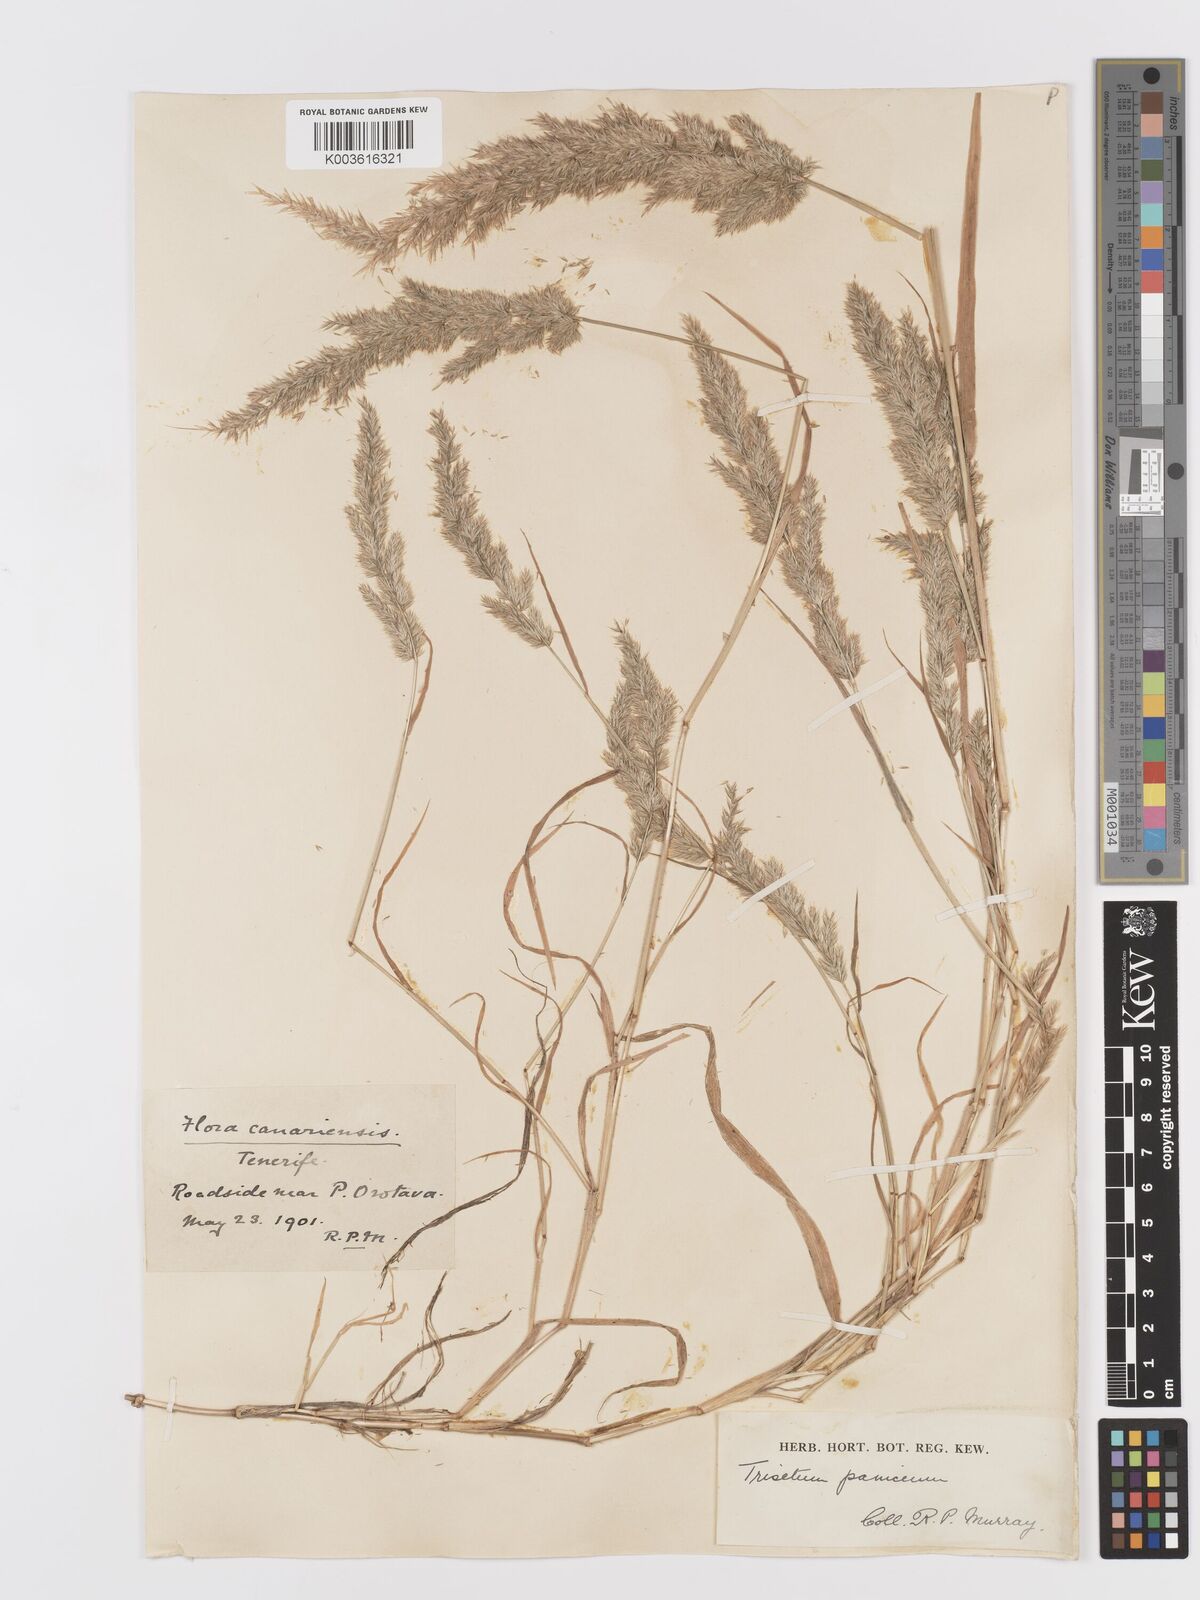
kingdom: Plantae
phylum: Tracheophyta
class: Liliopsida
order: Poales
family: Poaceae
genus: Trisetaria
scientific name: Trisetaria panicea
